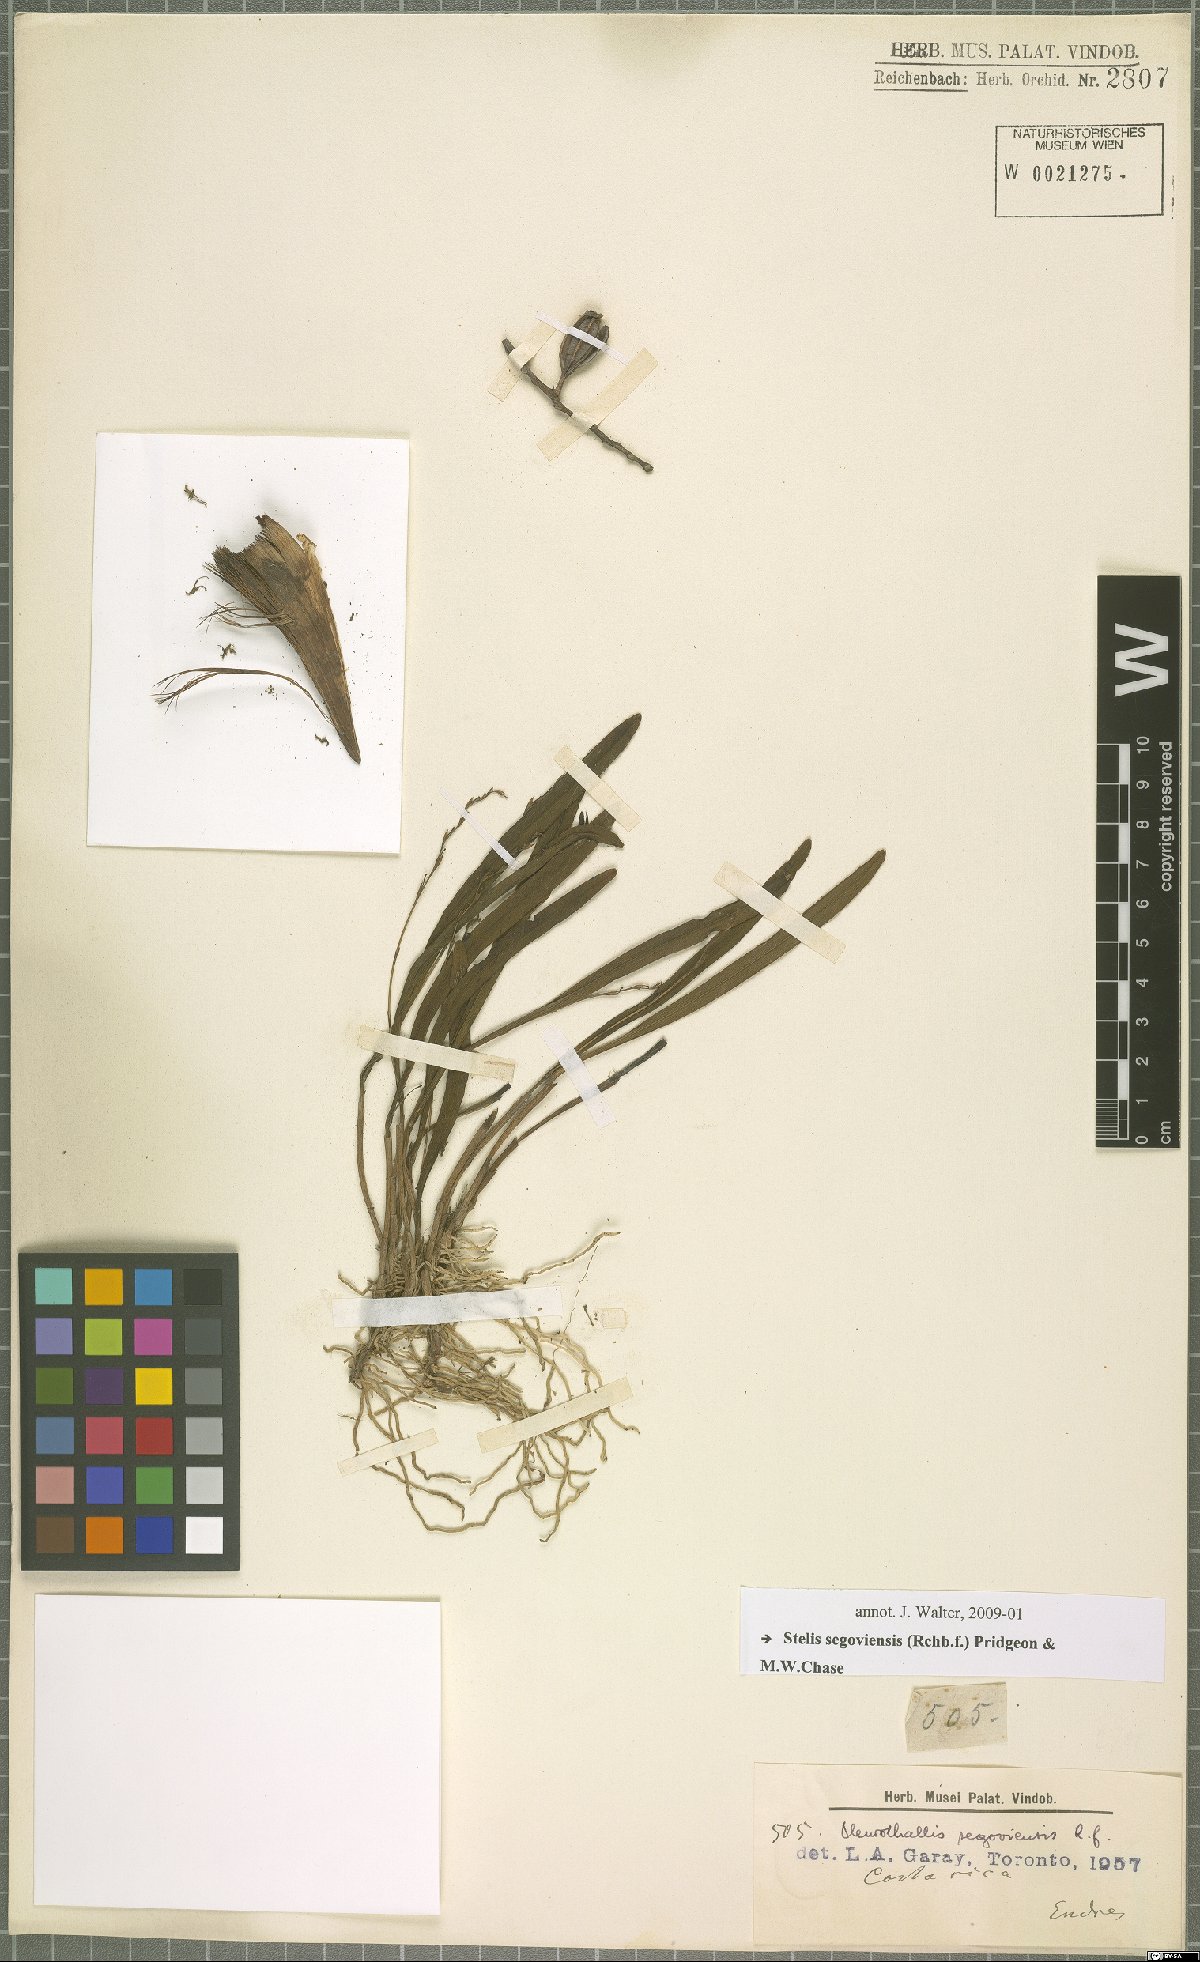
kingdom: Plantae
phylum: Tracheophyta
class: Liliopsida
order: Asparagales
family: Orchidaceae
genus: Stelis
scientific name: Stelis segoviensis
